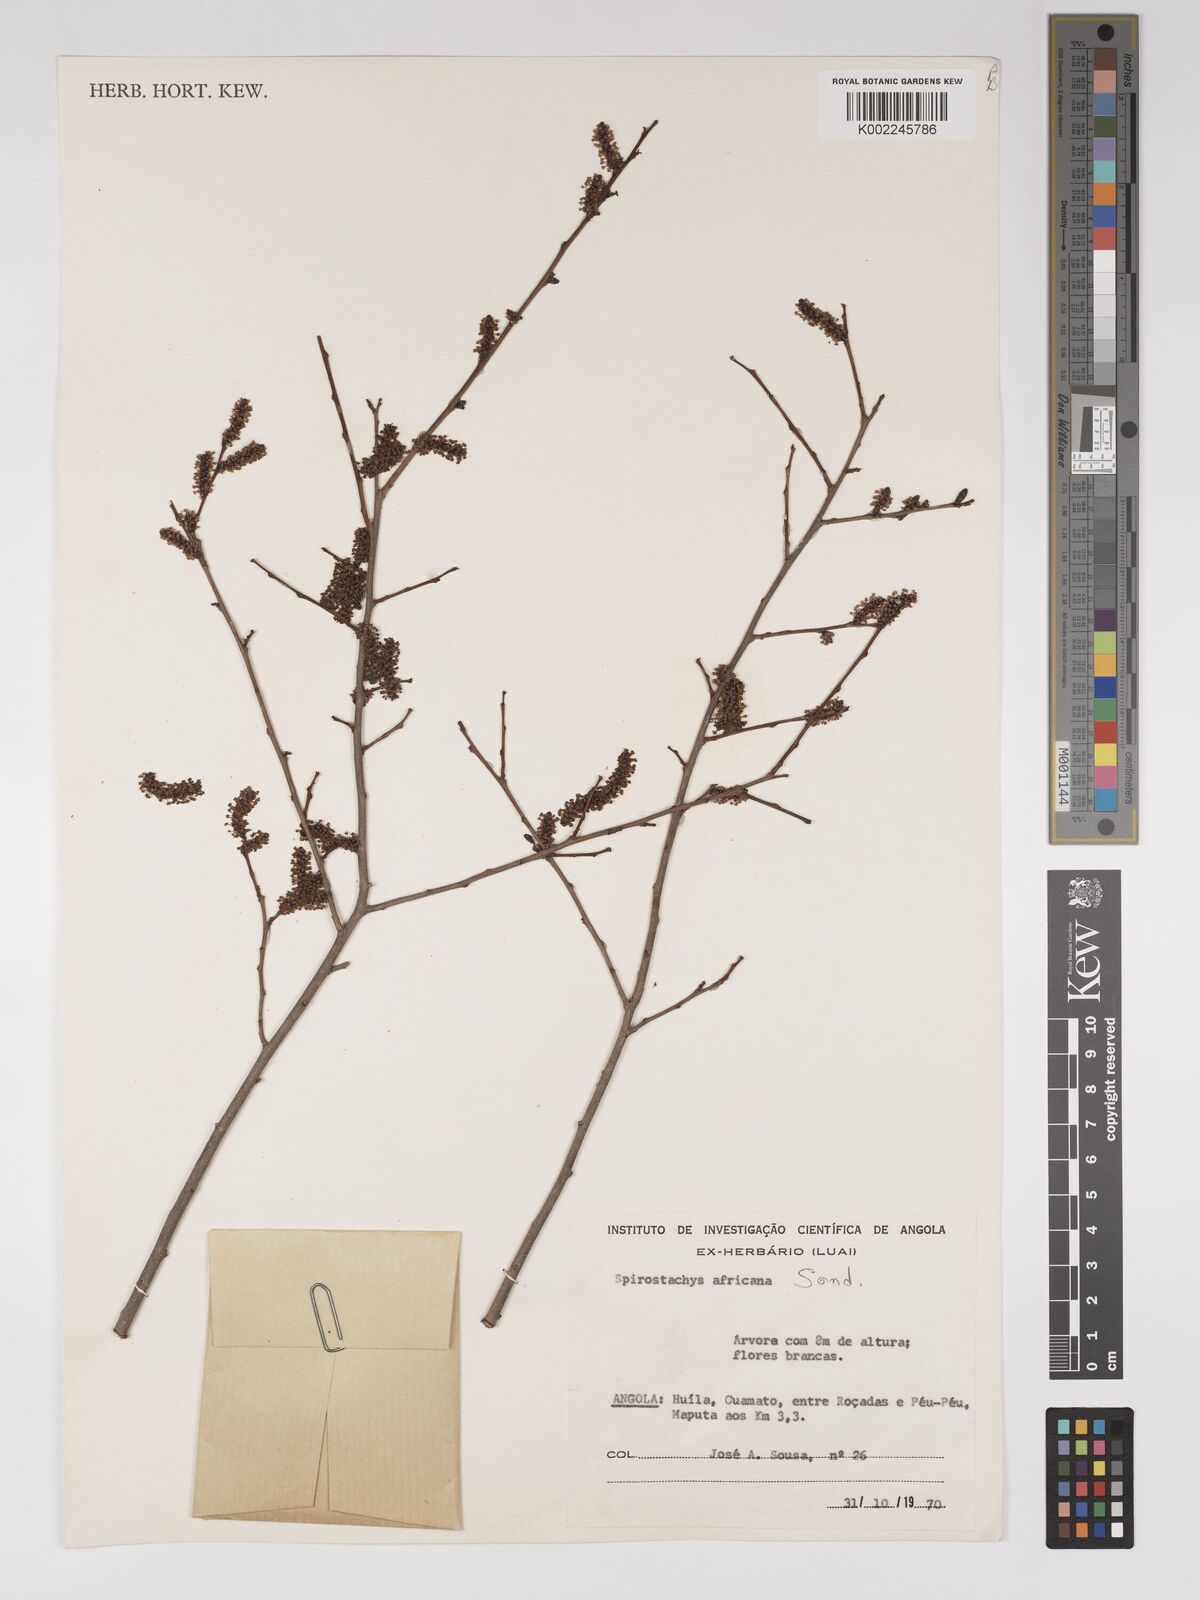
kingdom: Plantae
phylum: Tracheophyta
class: Magnoliopsida
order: Malpighiales
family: Euphorbiaceae
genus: Spirostachys
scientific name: Spirostachys africana
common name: Tamboti
